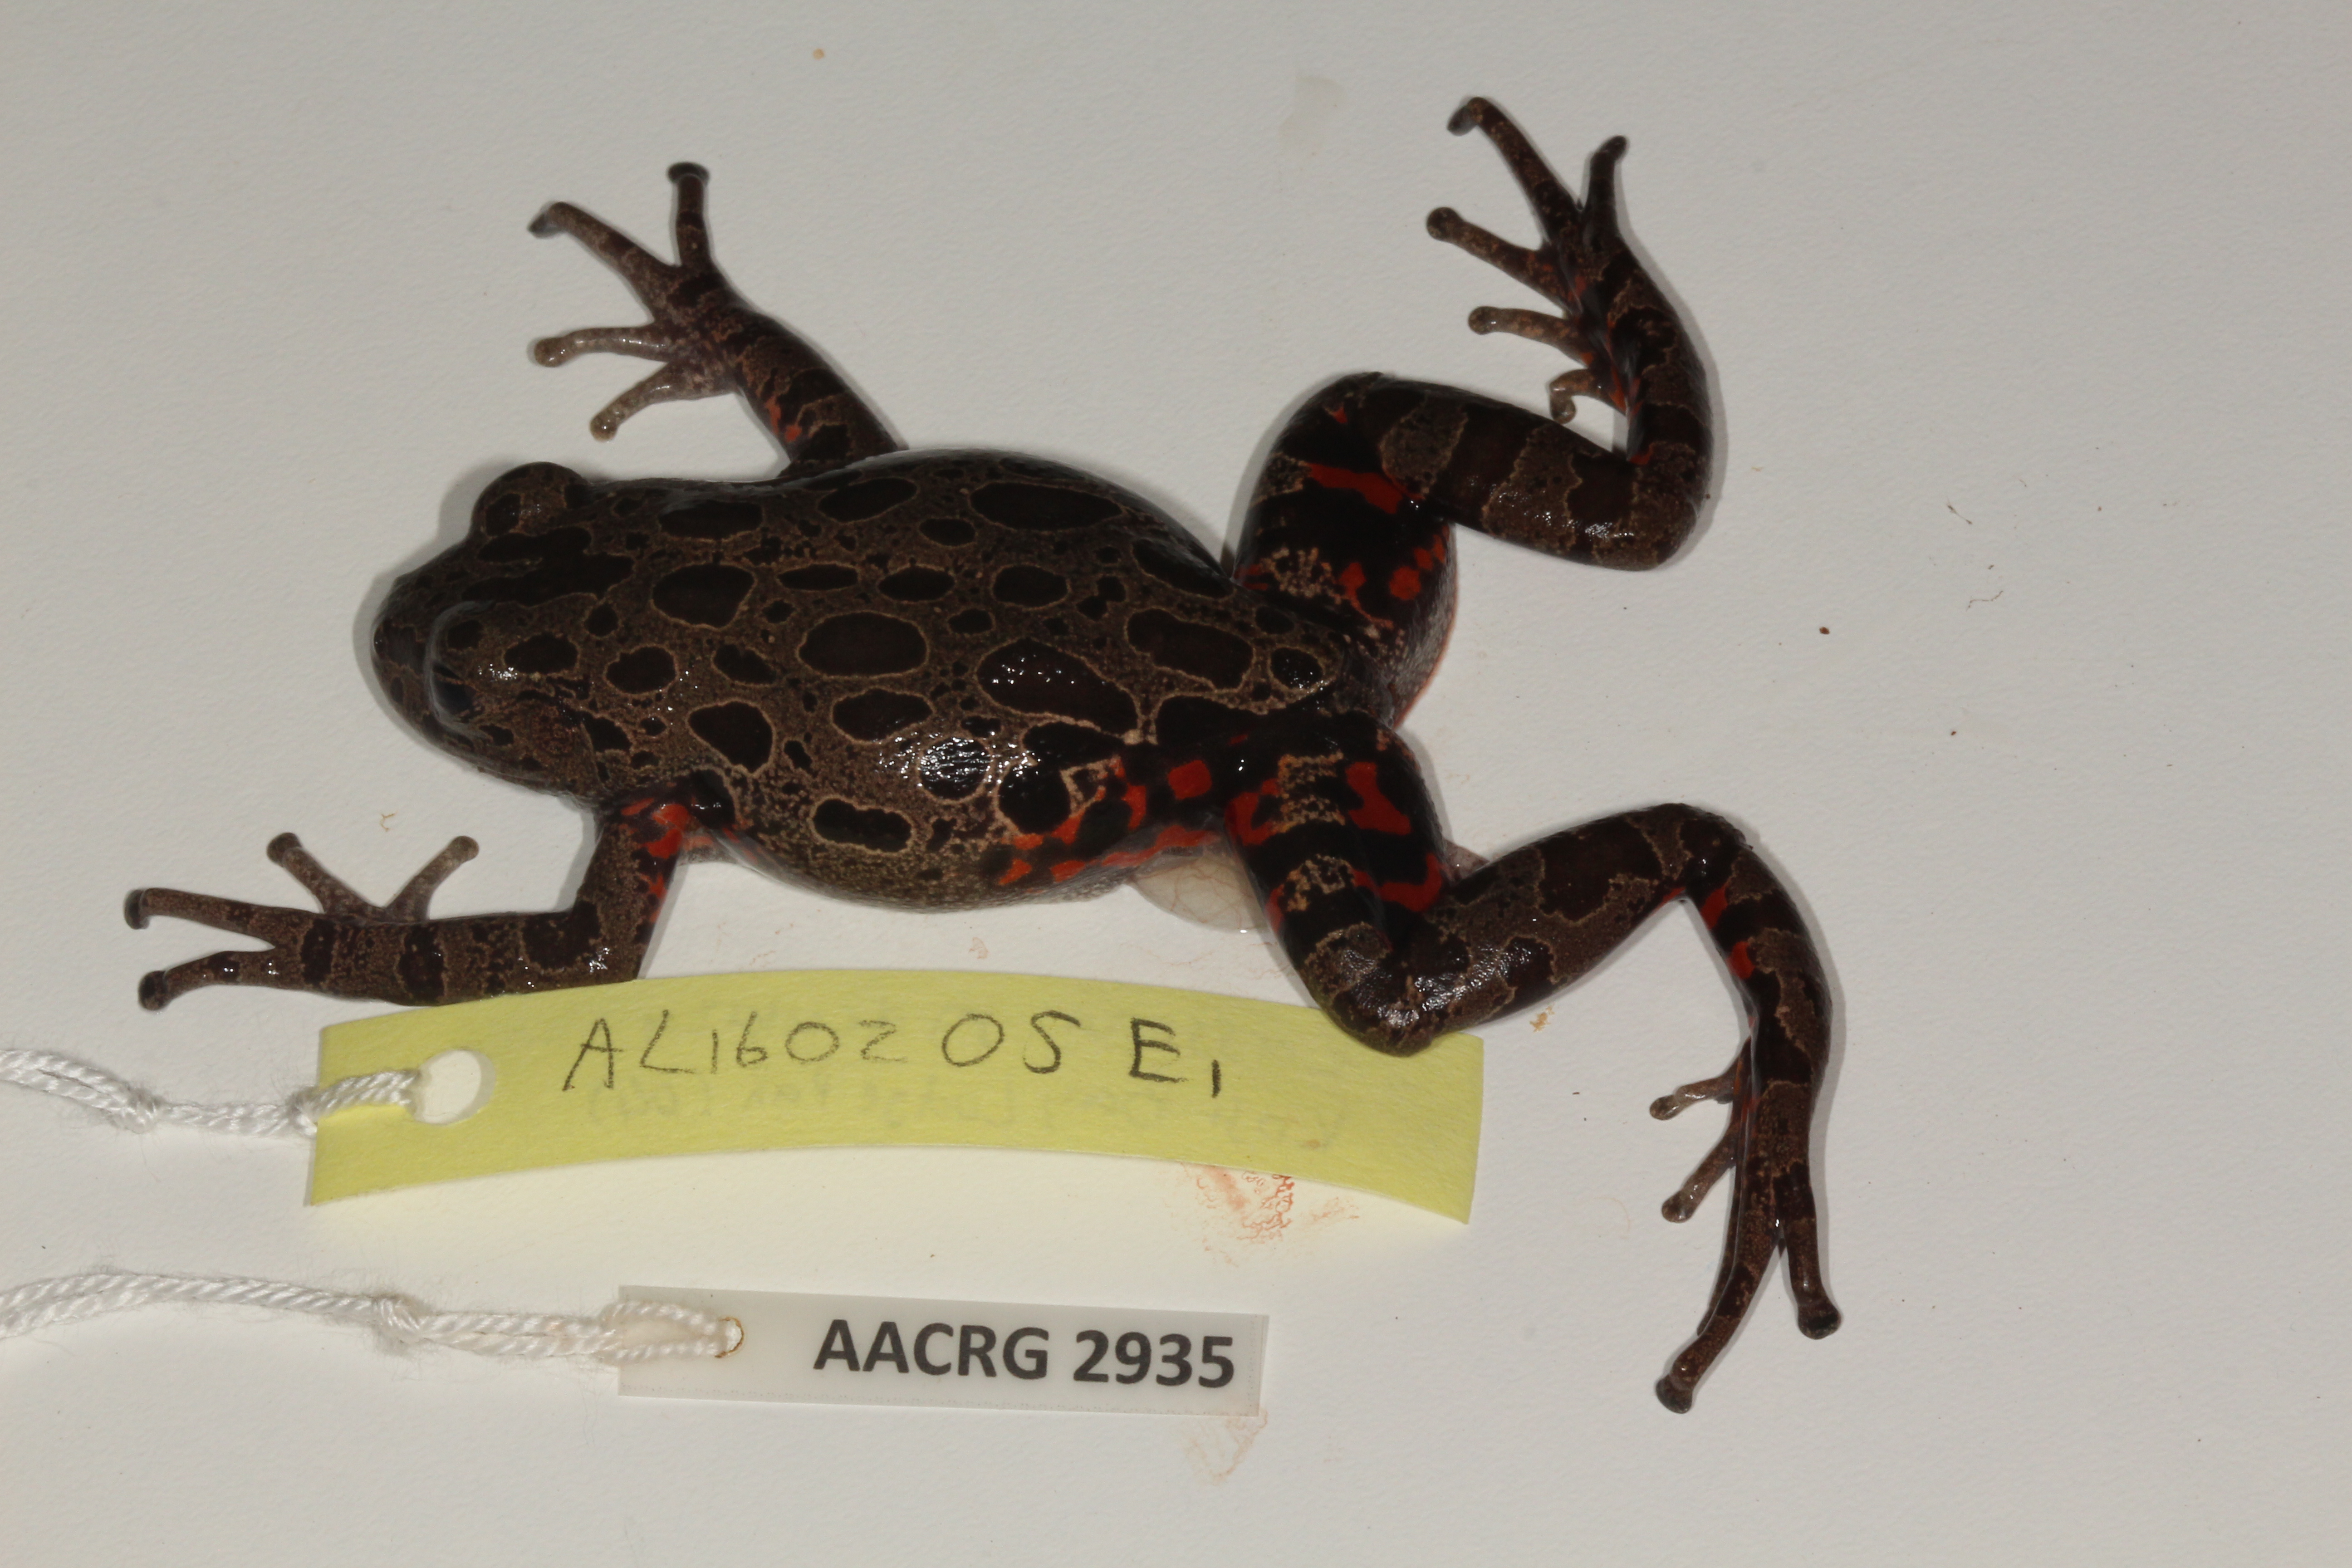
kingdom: Animalia
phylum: Chordata
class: Amphibia
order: Anura
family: Hyperoliidae
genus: Phlyctimantis
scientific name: Phlyctimantis maculatus
